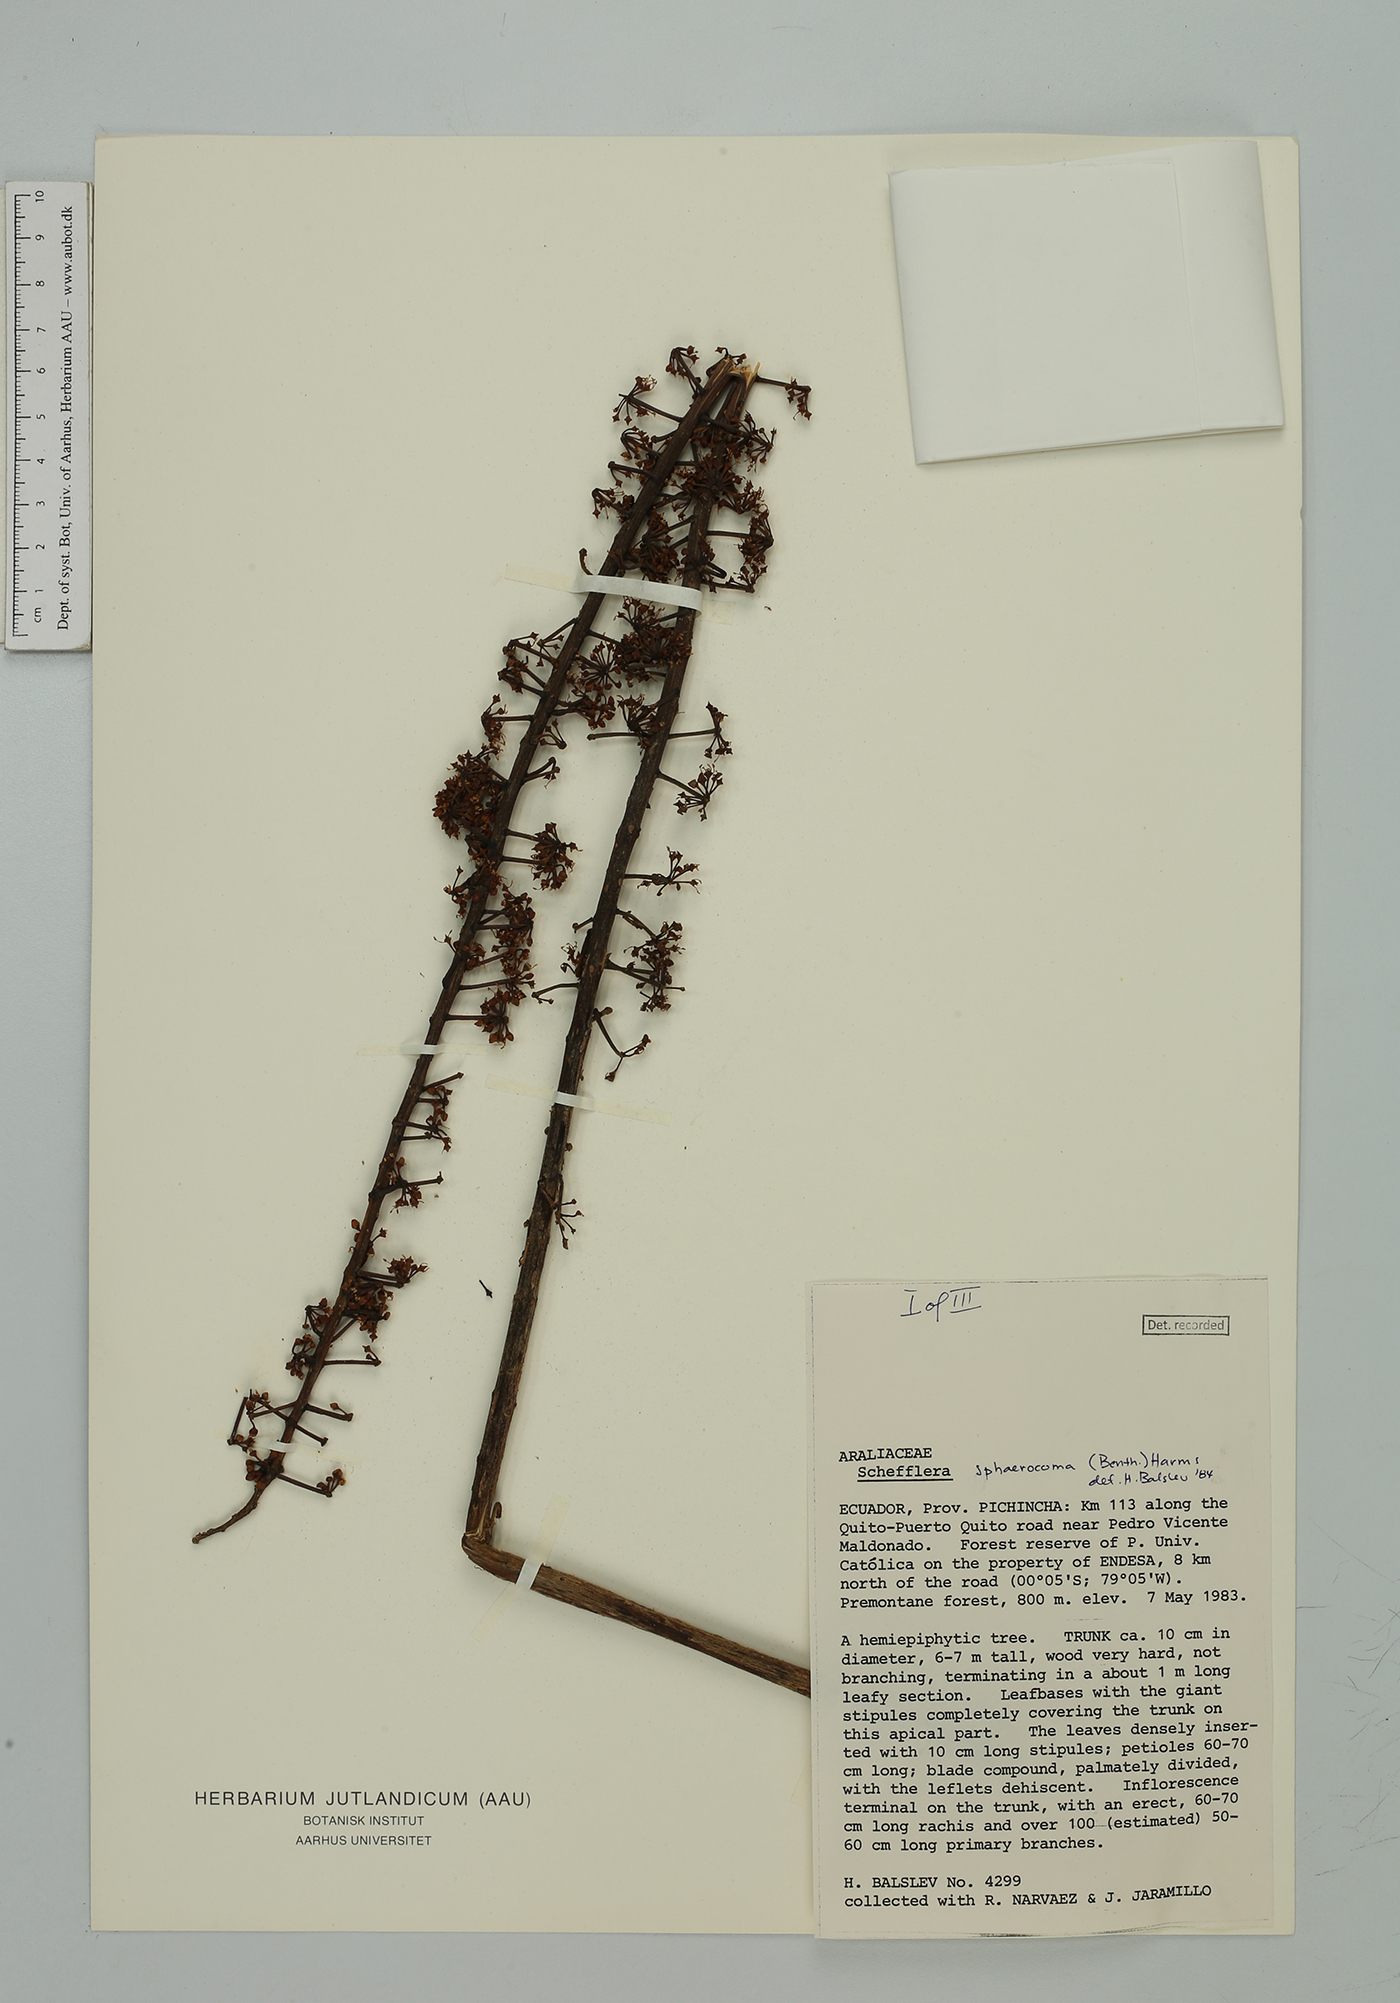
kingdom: Plantae
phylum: Tracheophyta
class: Magnoliopsida
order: Apiales
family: Araliaceae
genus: Sciodaphyllum
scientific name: Sciodaphyllum sphaerocoma
